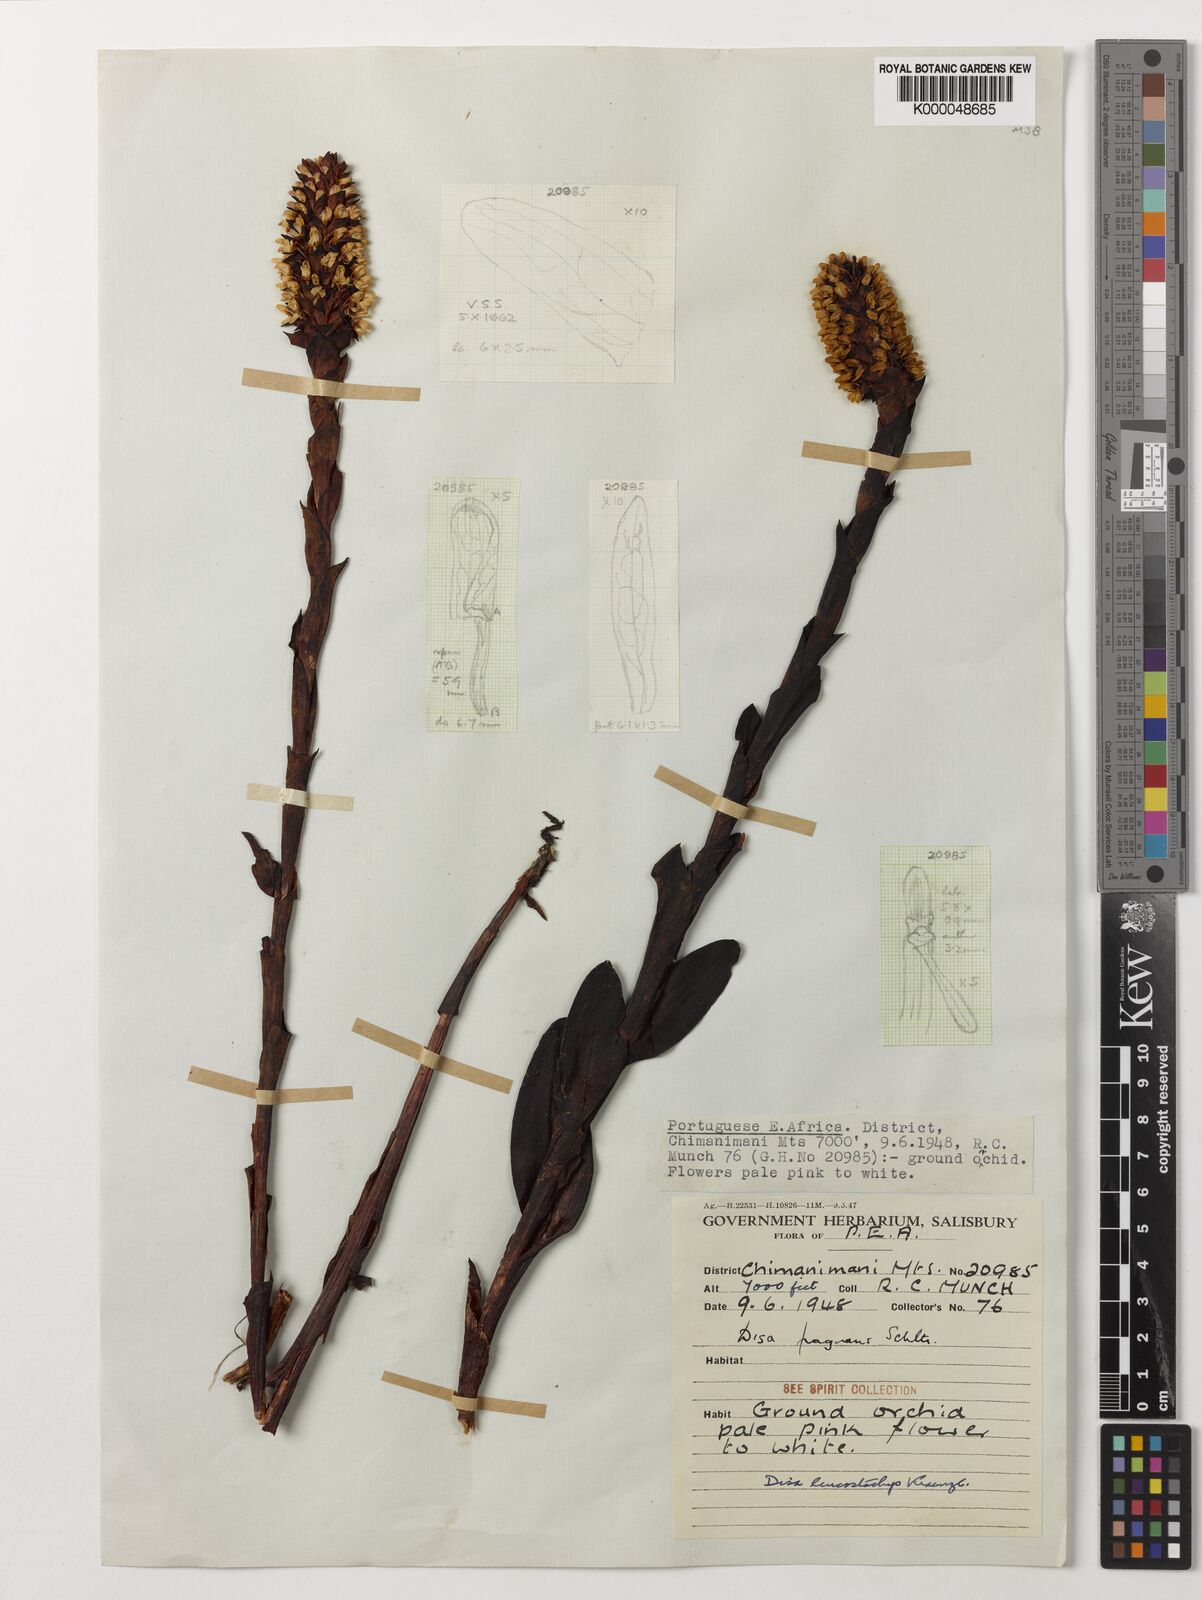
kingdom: Plantae
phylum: Tracheophyta
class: Liliopsida
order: Asparagales
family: Orchidaceae
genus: Disa
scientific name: Disa fragrans
